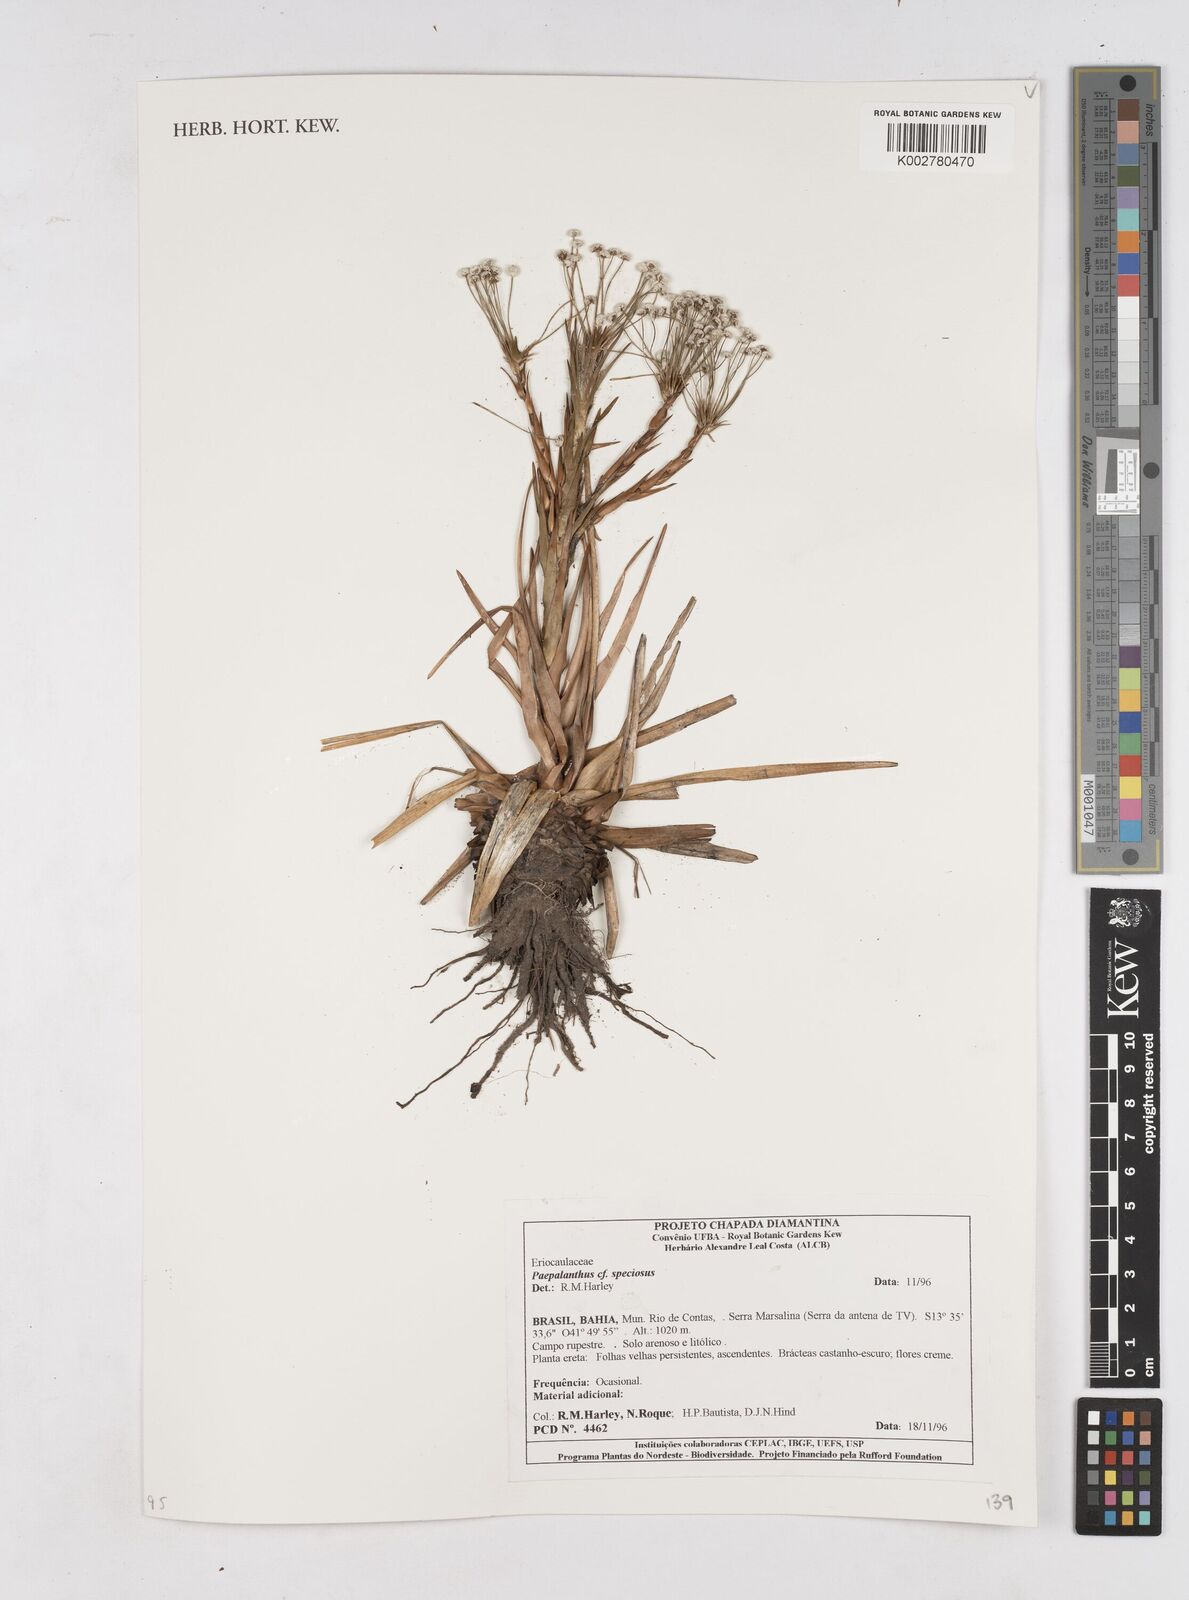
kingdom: Plantae
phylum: Tracheophyta
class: Liliopsida
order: Poales
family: Eriocaulaceae
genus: Paepalanthus
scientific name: Paepalanthus chiquitensis
